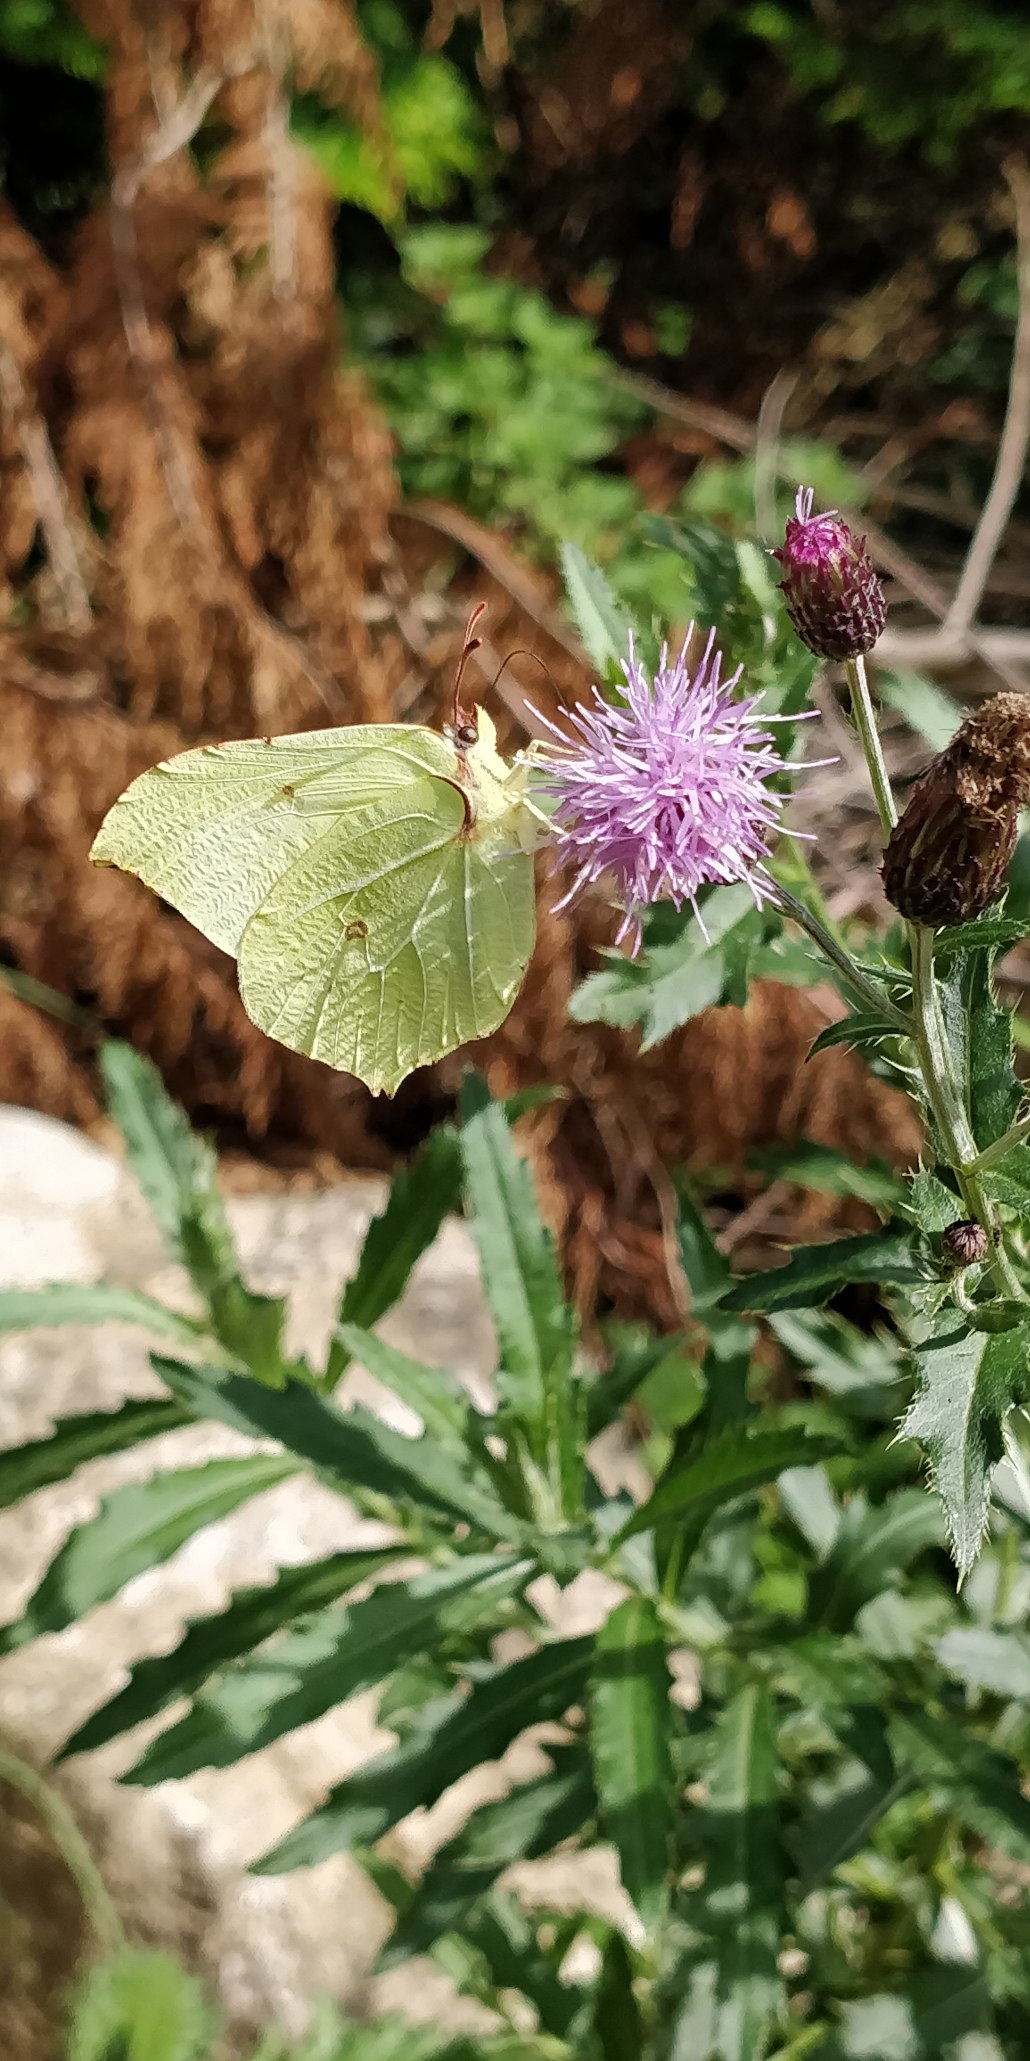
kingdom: Animalia
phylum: Arthropoda
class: Insecta
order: Lepidoptera
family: Pieridae
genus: Gonepteryx
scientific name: Gonepteryx rhamni
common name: Citronsommerfugl
